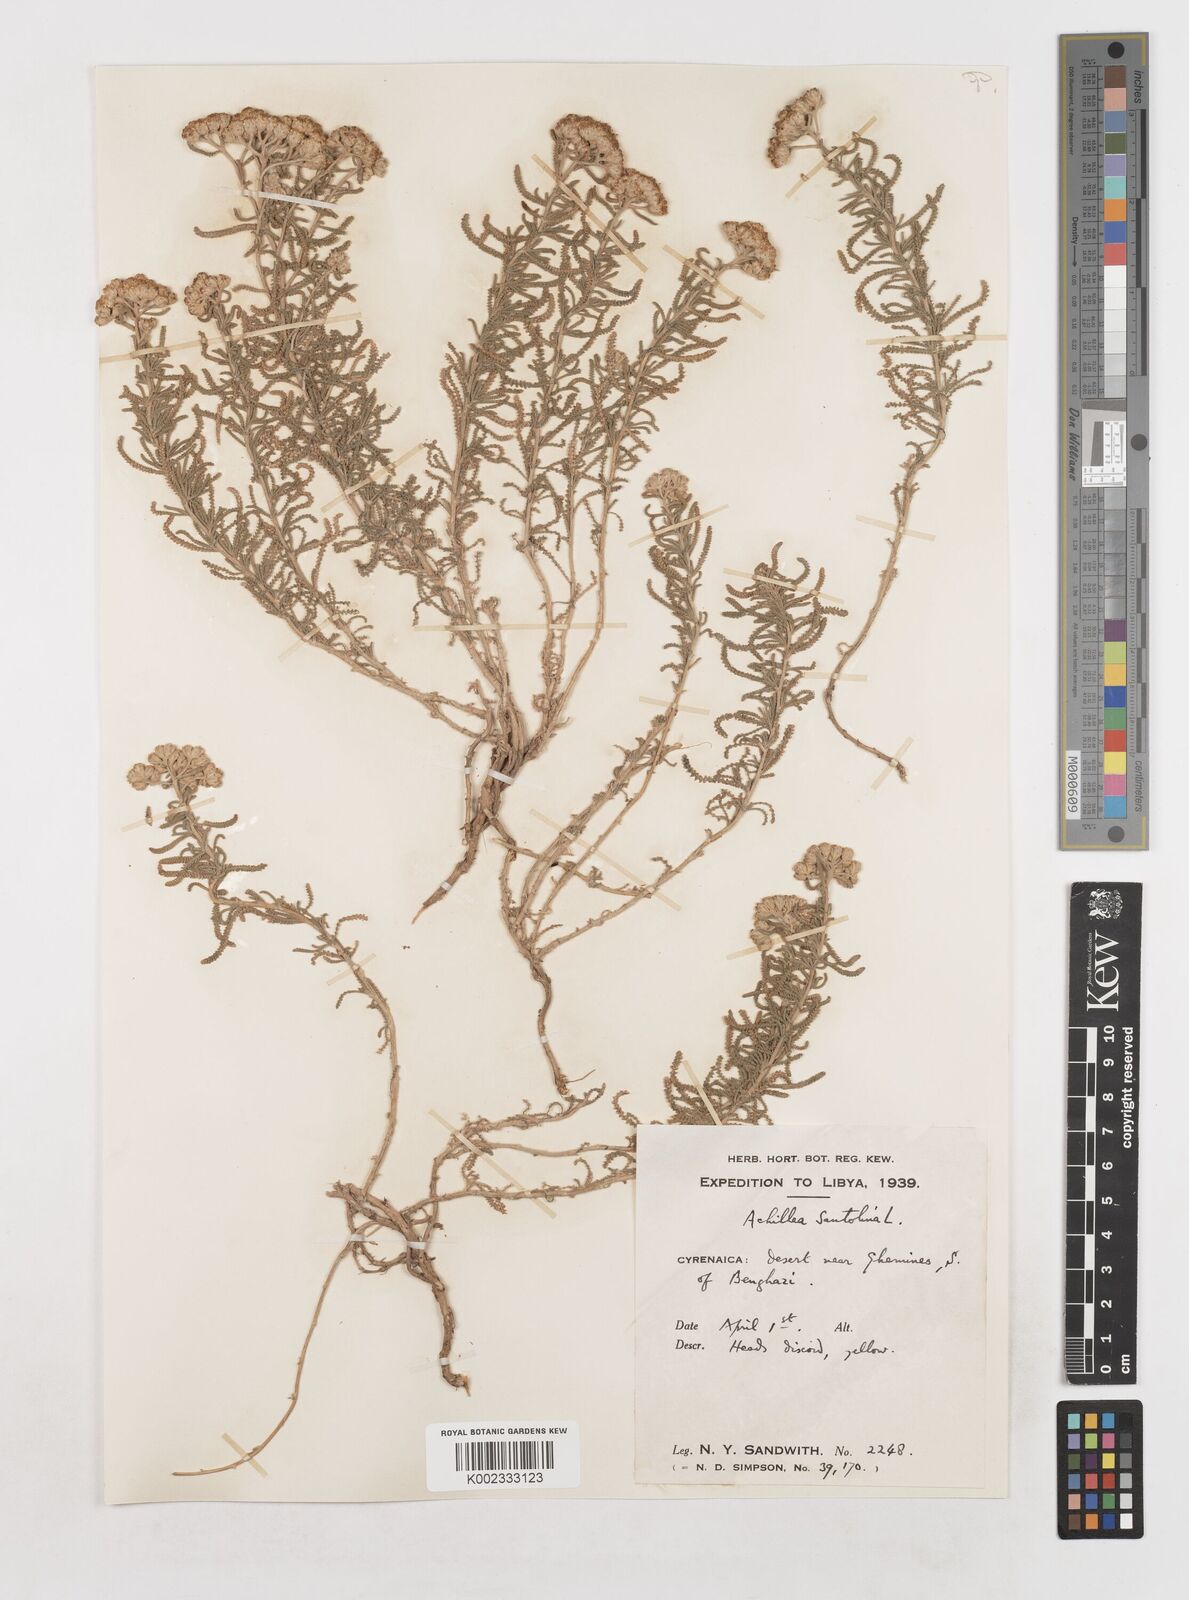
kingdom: Plantae
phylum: Tracheophyta
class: Magnoliopsida
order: Asterales
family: Asteraceae
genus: Achillea
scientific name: Achillea tenuifolia
